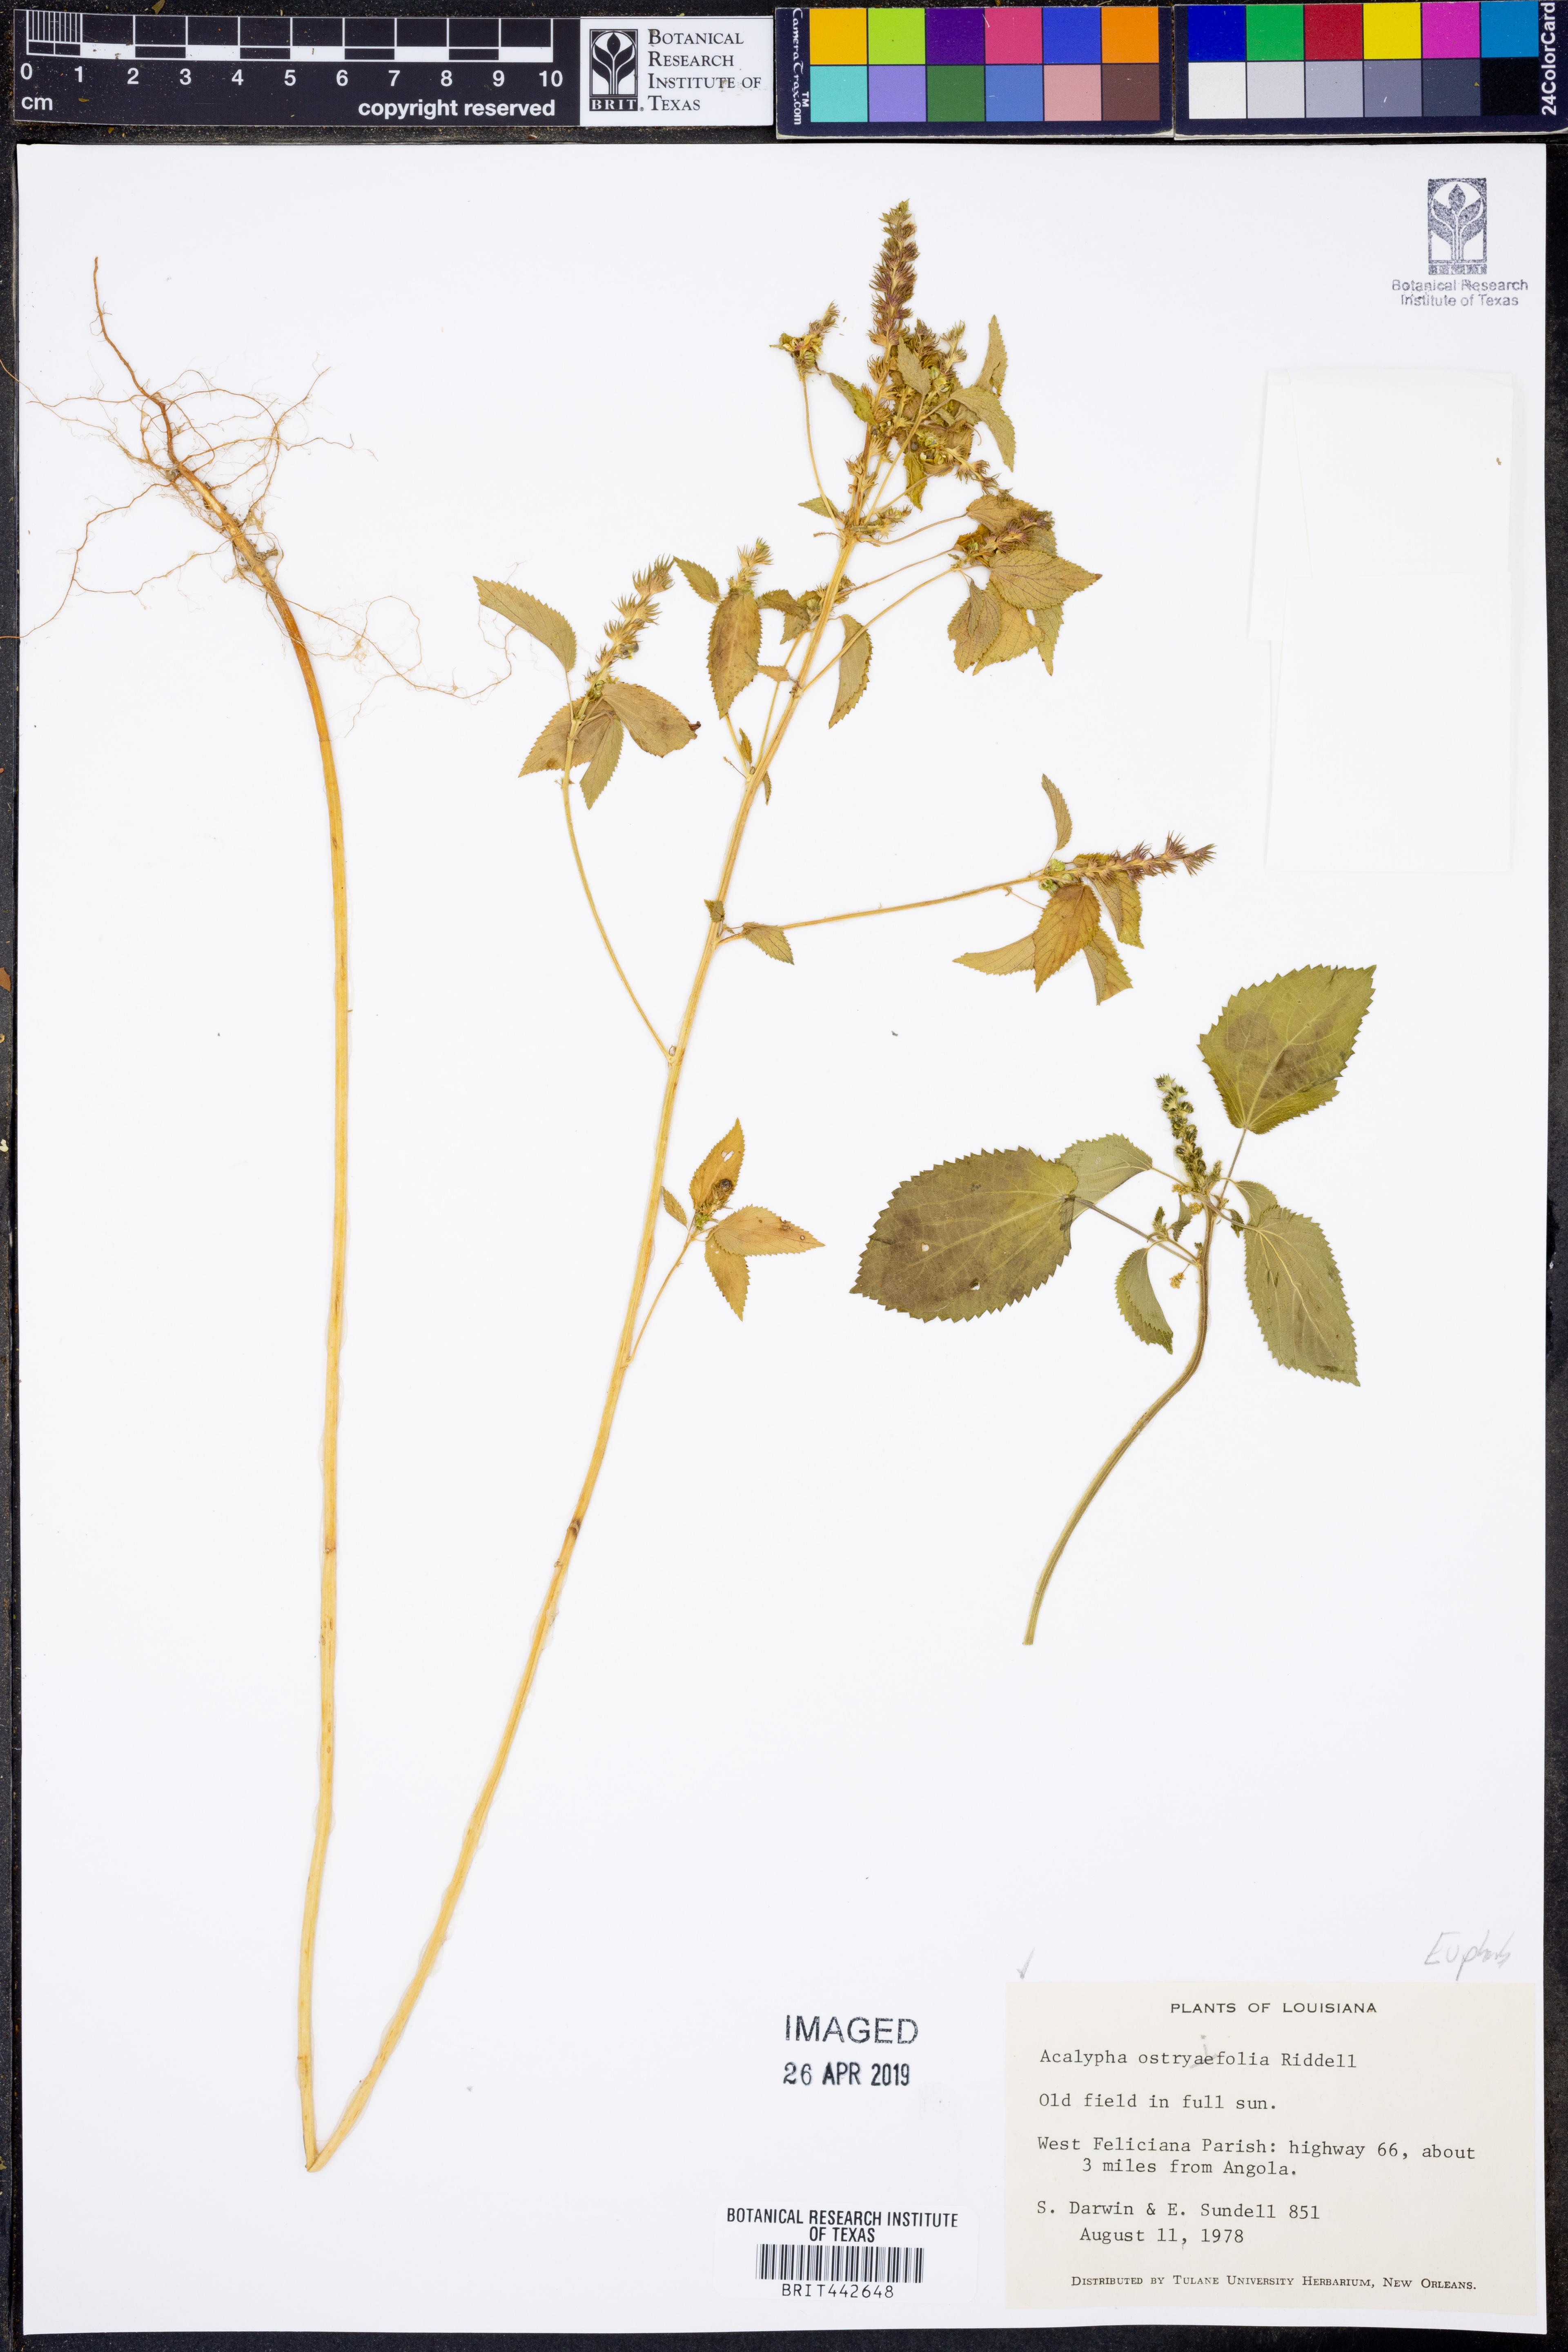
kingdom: Plantae
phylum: Tracheophyta
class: Magnoliopsida
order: Malpighiales
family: Euphorbiaceae
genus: Acalypha
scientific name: Acalypha ostryifolia
